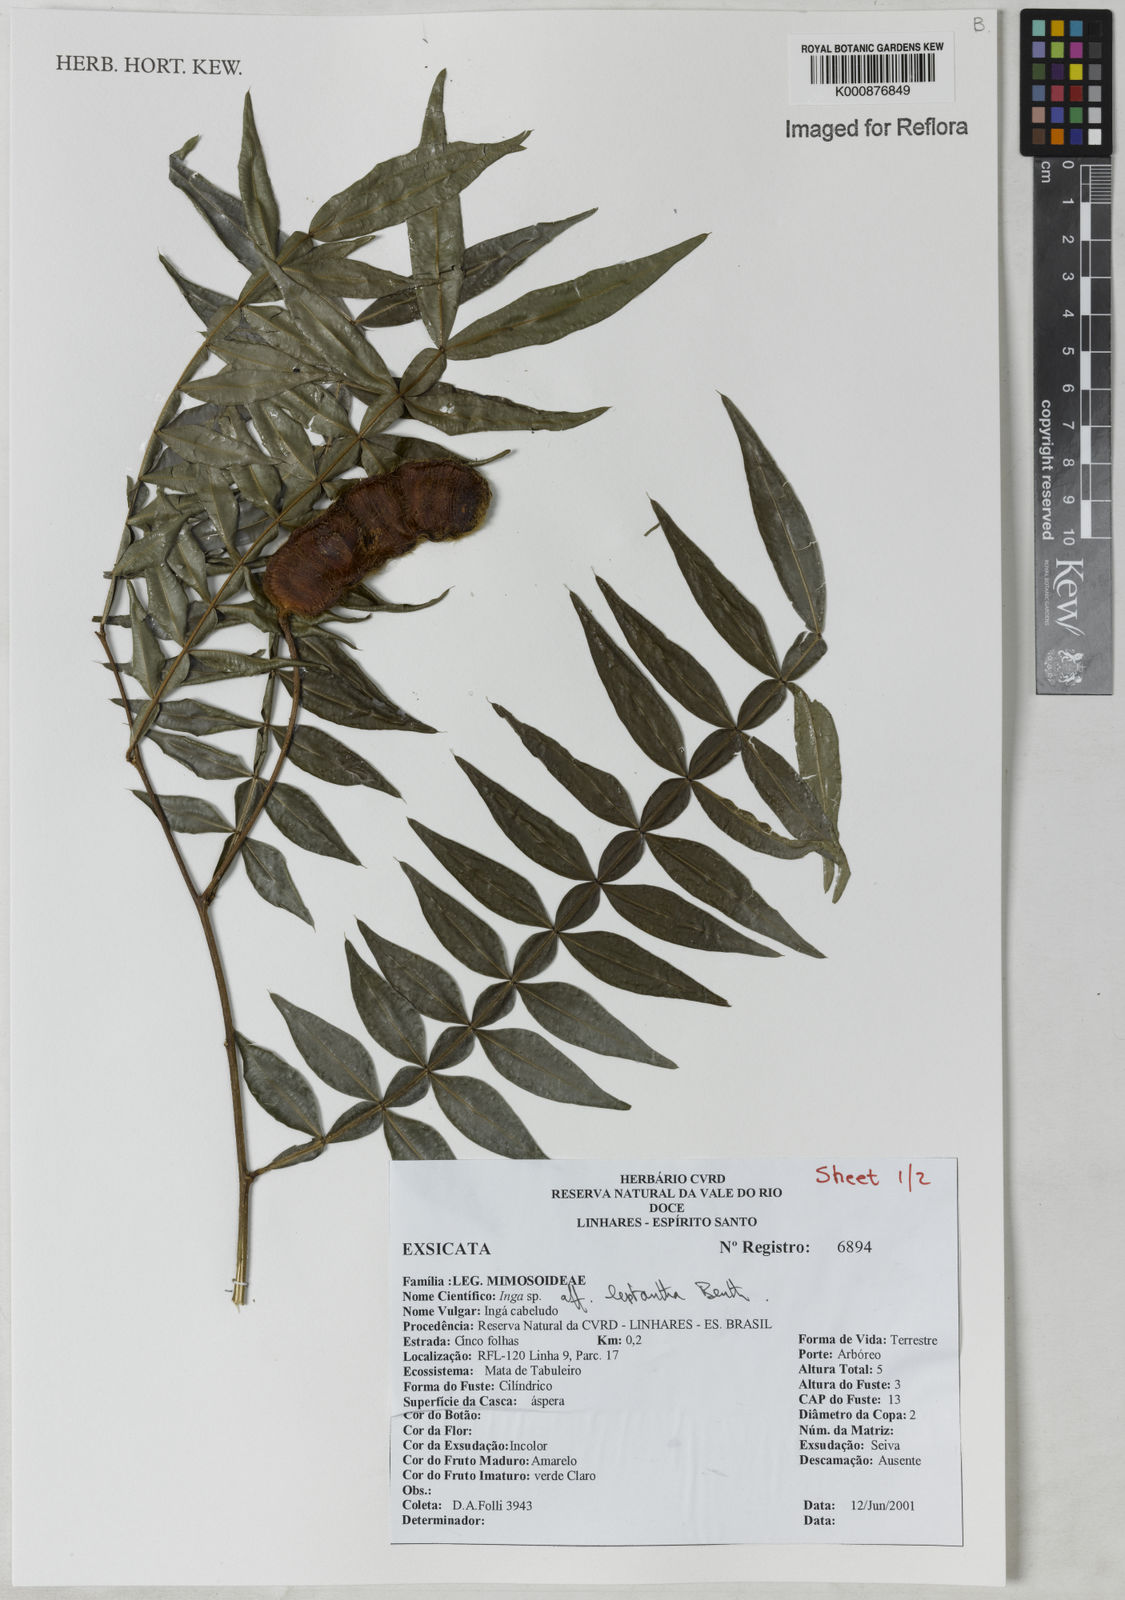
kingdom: Plantae
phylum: Tracheophyta
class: Magnoliopsida
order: Fabales
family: Fabaceae
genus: Inga
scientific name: Inga leptantha
